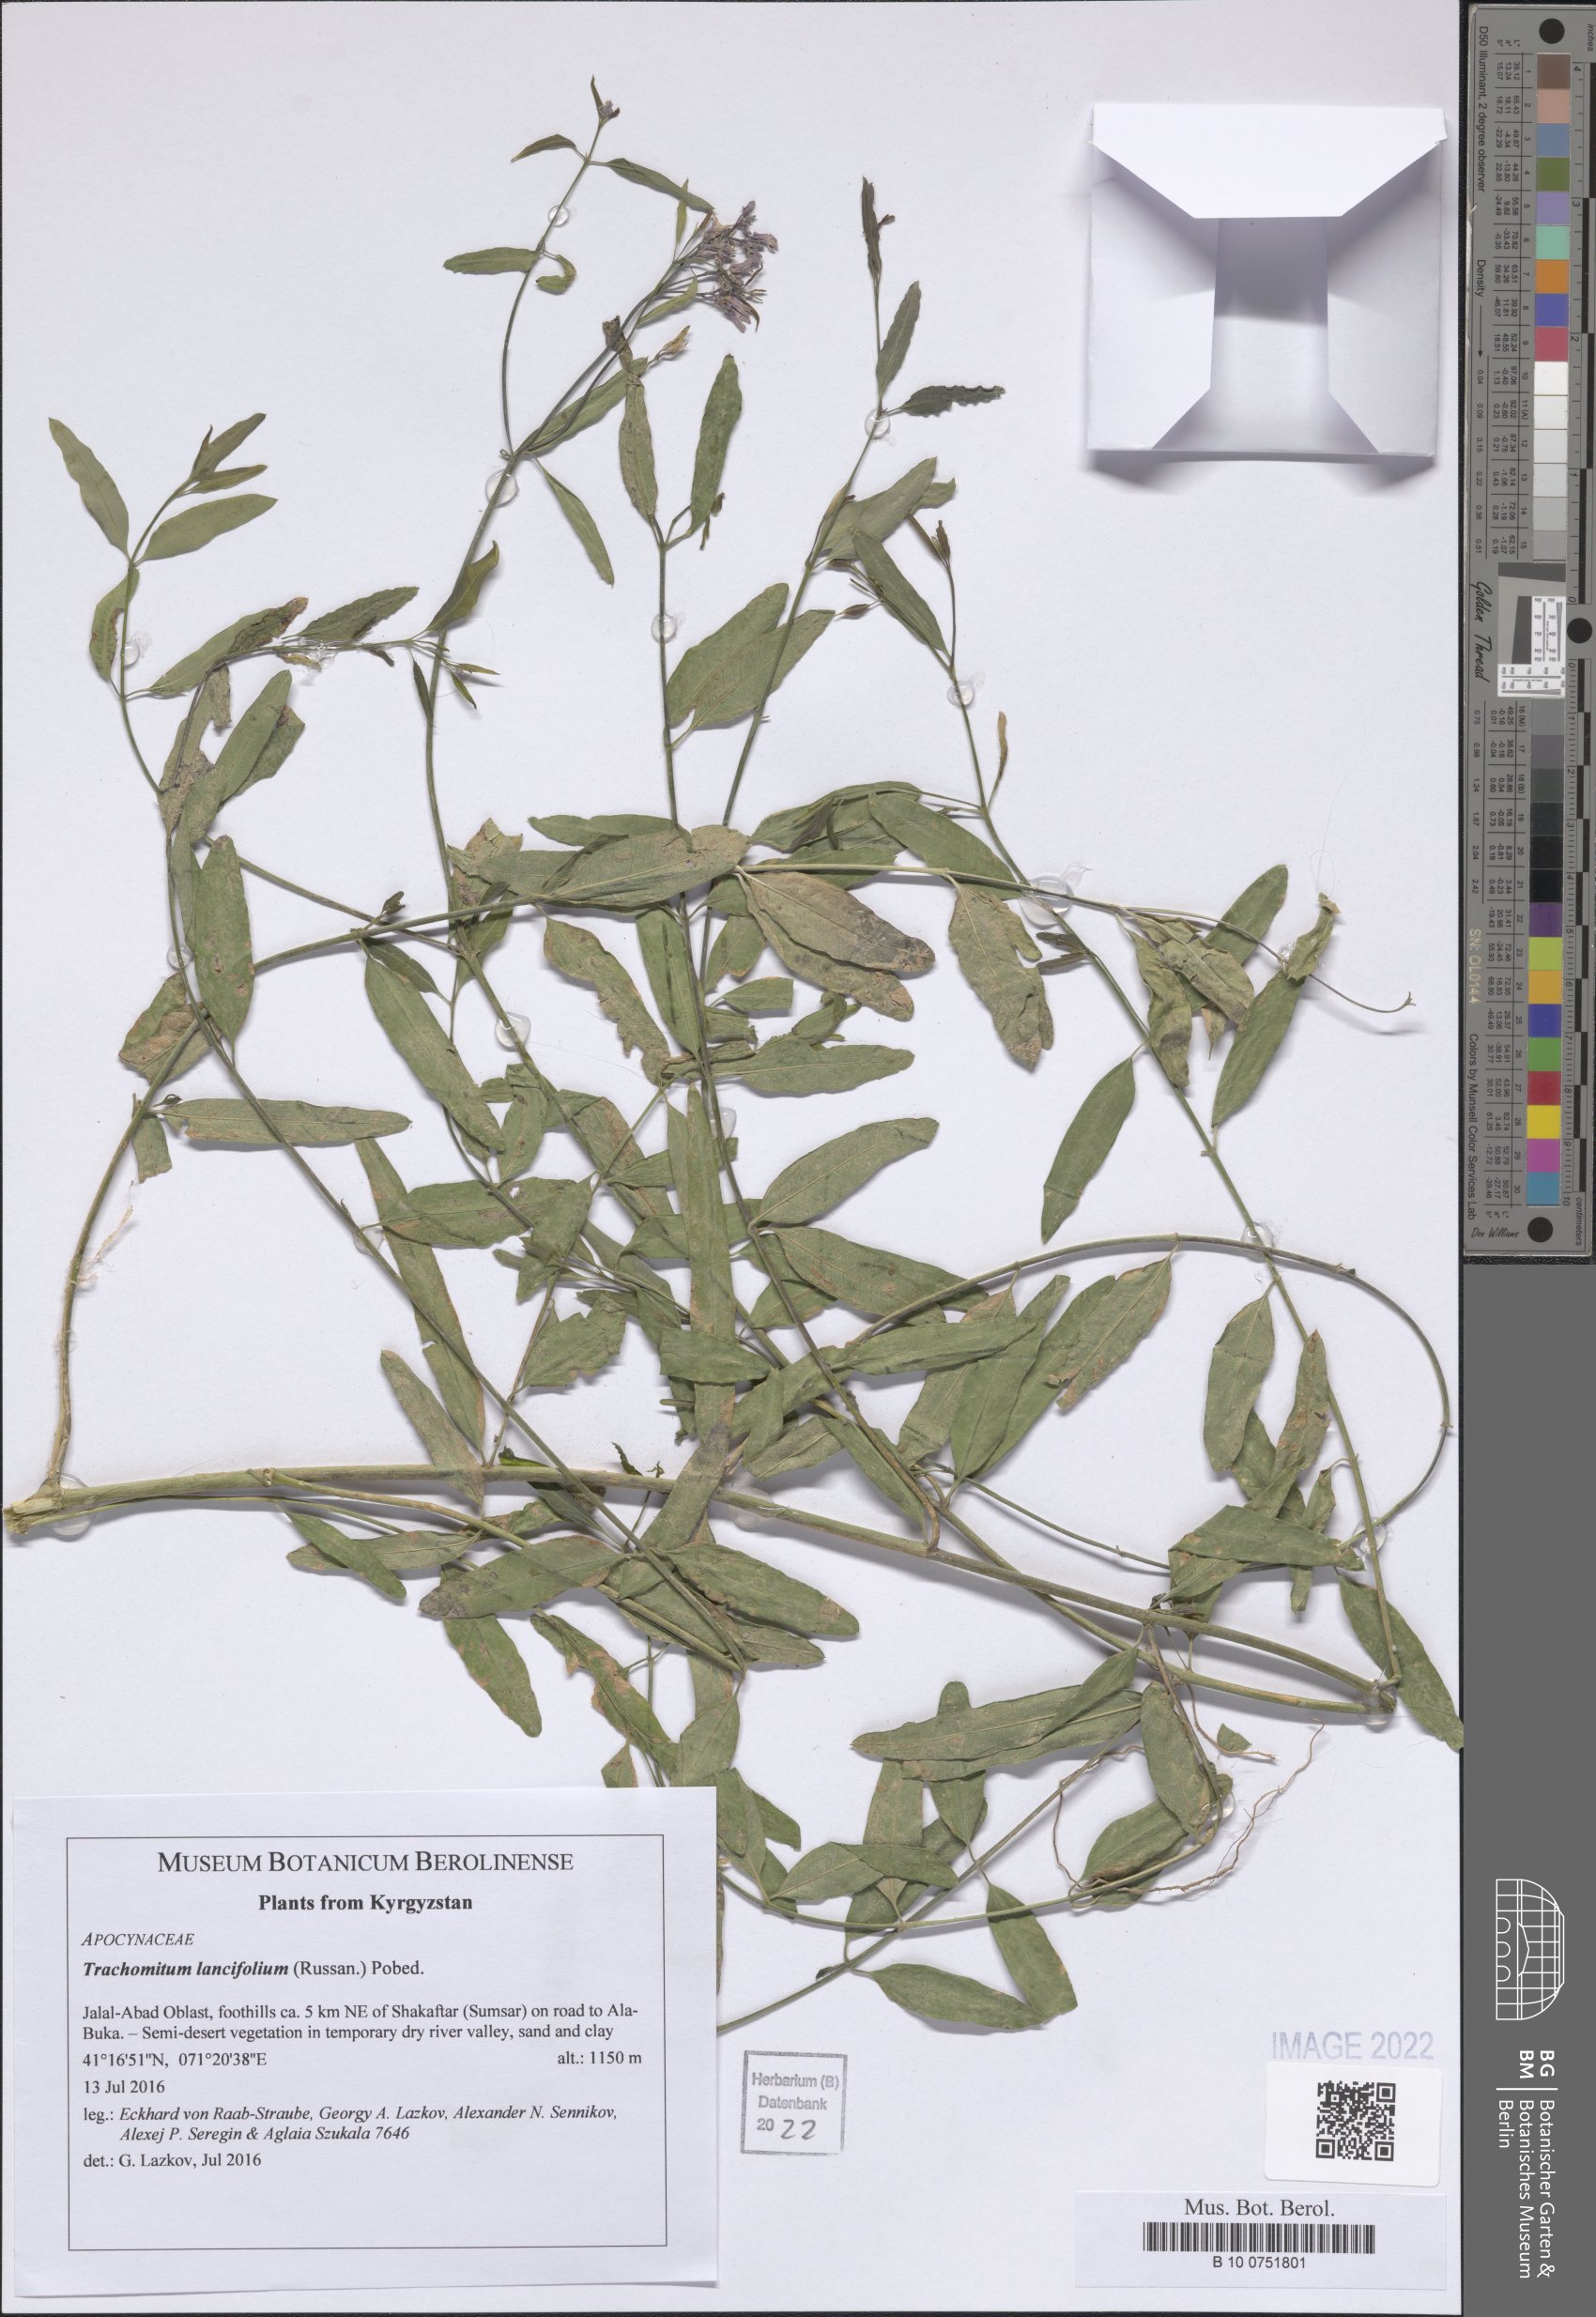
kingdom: Plantae
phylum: Tracheophyta
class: Magnoliopsida
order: Gentianales
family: Apocynaceae
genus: Poacynum
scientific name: Poacynum lancifolium
